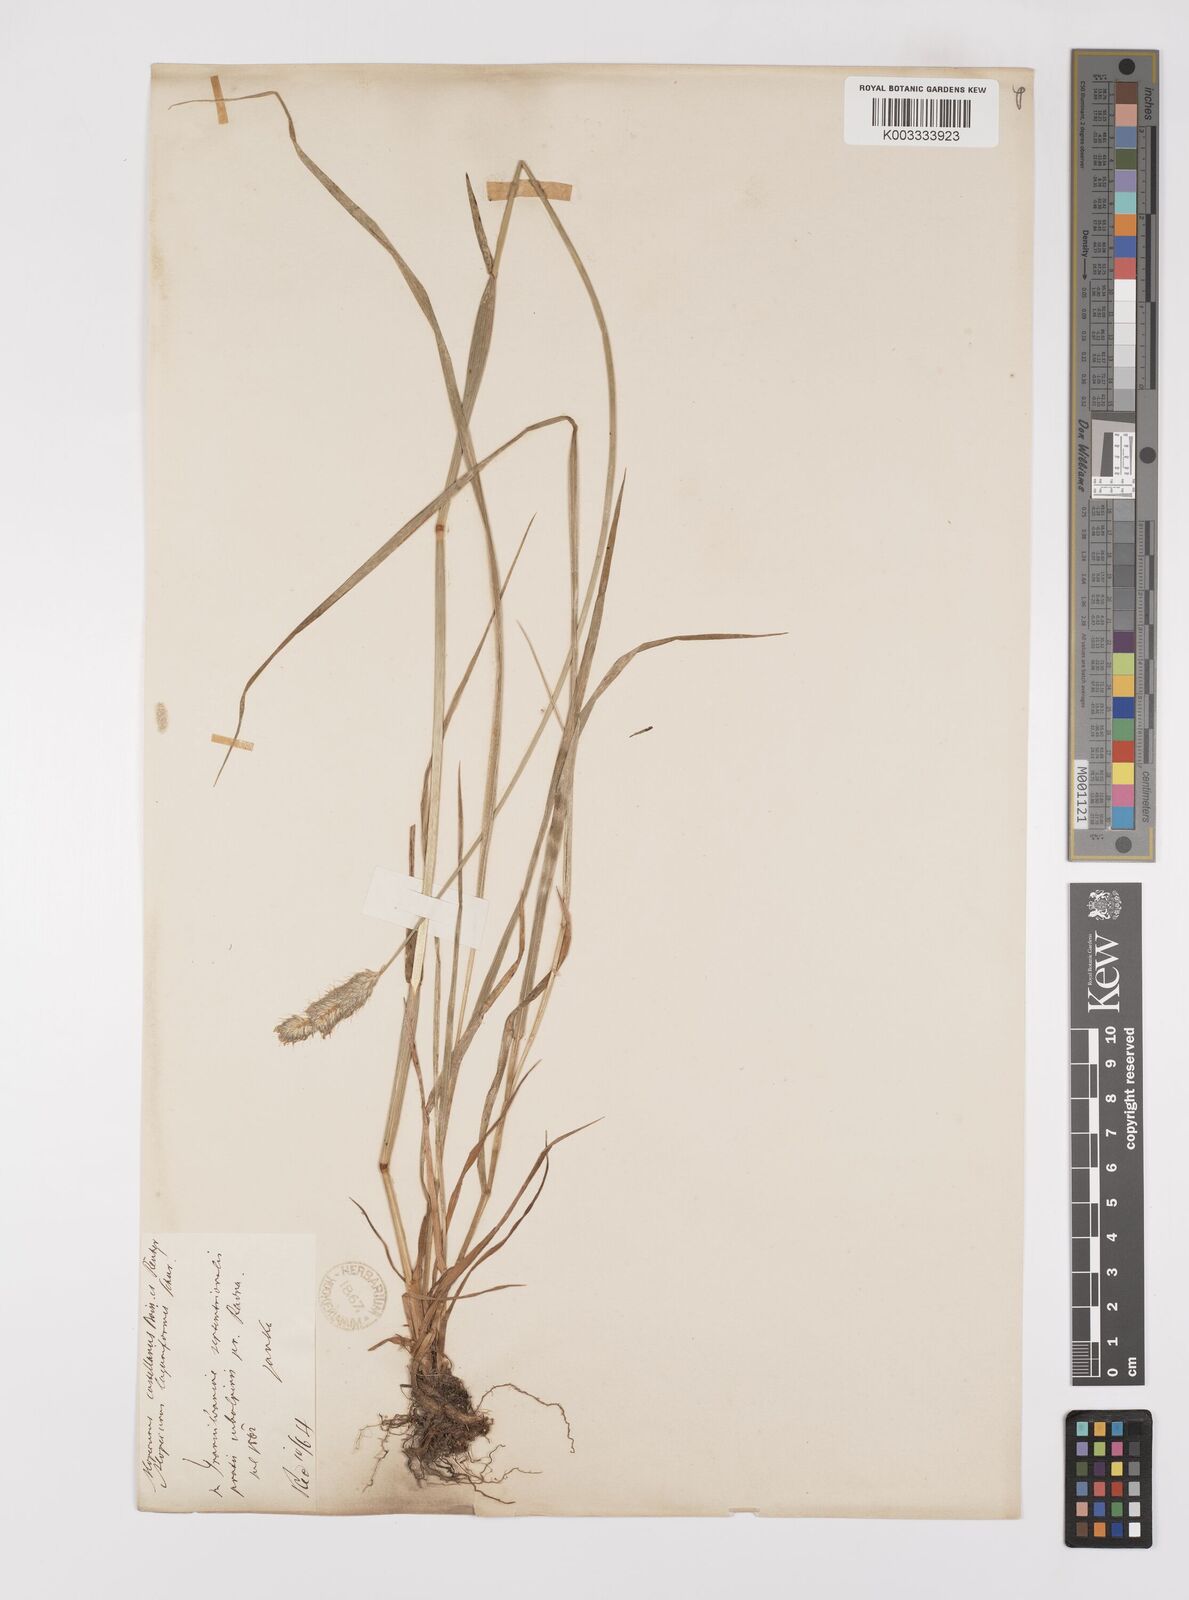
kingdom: Plantae
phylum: Tracheophyta
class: Liliopsida
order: Poales
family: Poaceae
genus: Alopecurus
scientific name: Alopecurus pratensis
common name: Meadow foxtail
